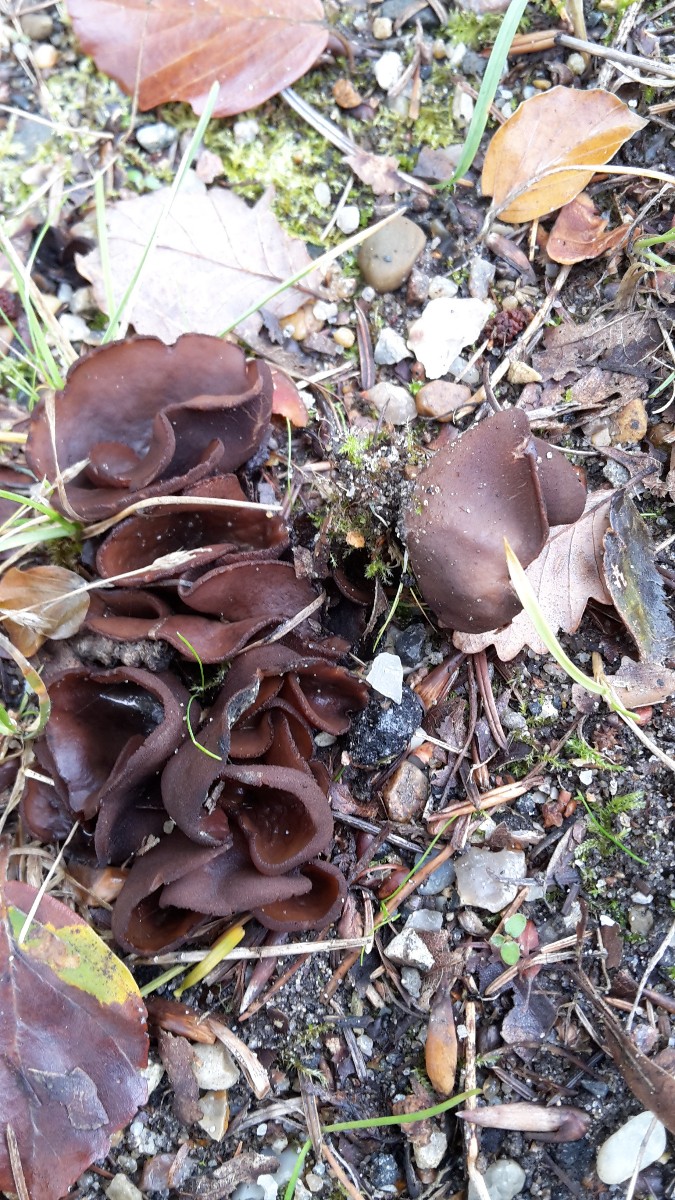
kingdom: Fungi
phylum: Ascomycota
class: Pezizomycetes
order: Pezizales
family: Otideaceae
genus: Otidea
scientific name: Otidea bufonia
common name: brun ørebæger
